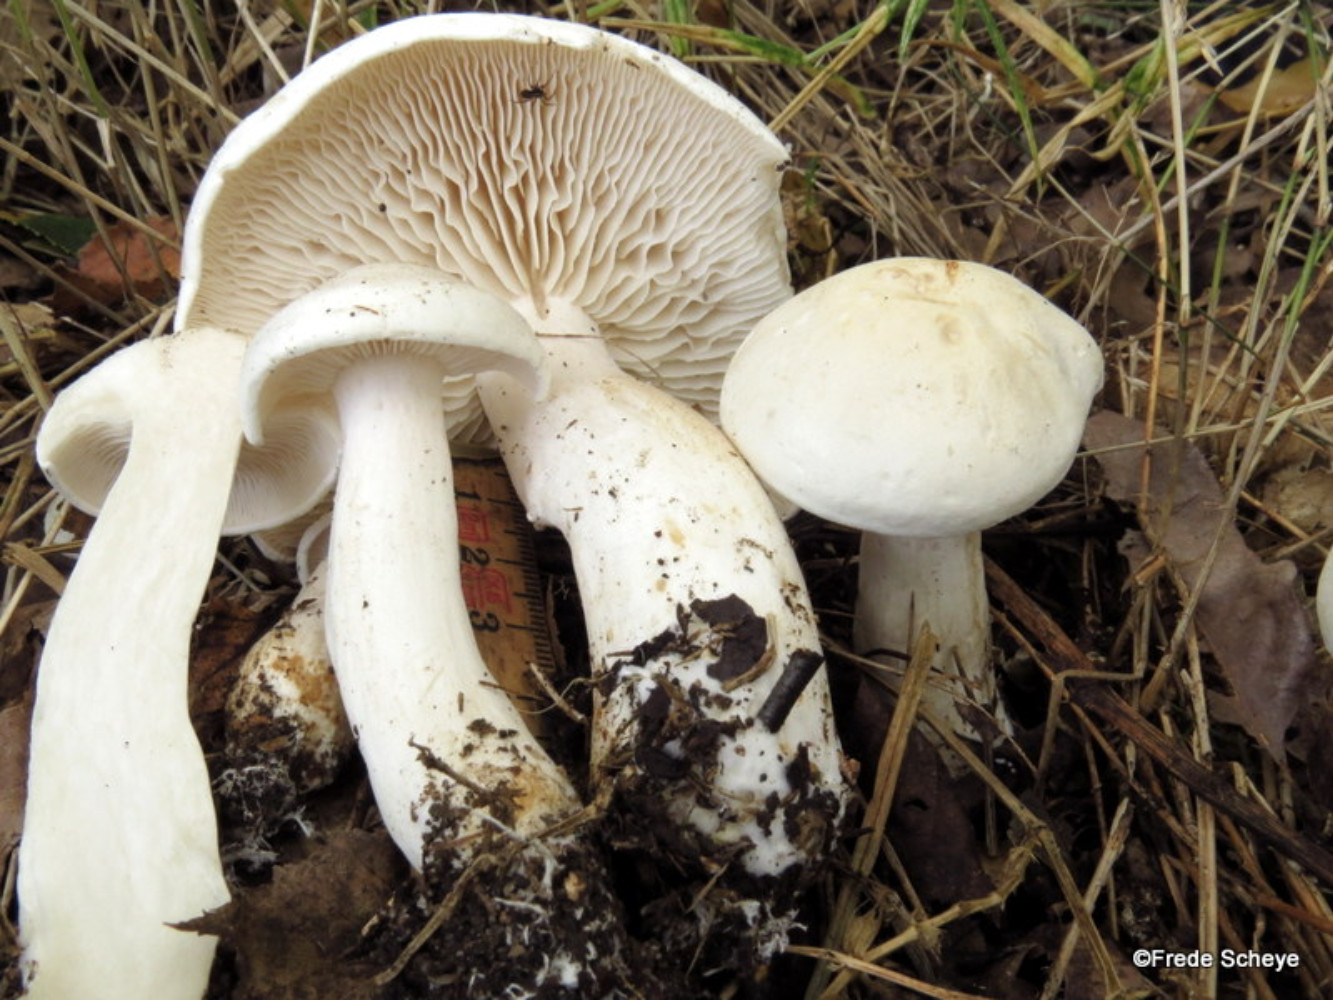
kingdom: Fungi
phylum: Basidiomycota
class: Agaricomycetes
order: Agaricales
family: Tricholomataceae
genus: Tricholoma
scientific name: Tricholoma stiparophyllum
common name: hvid ridderhat
